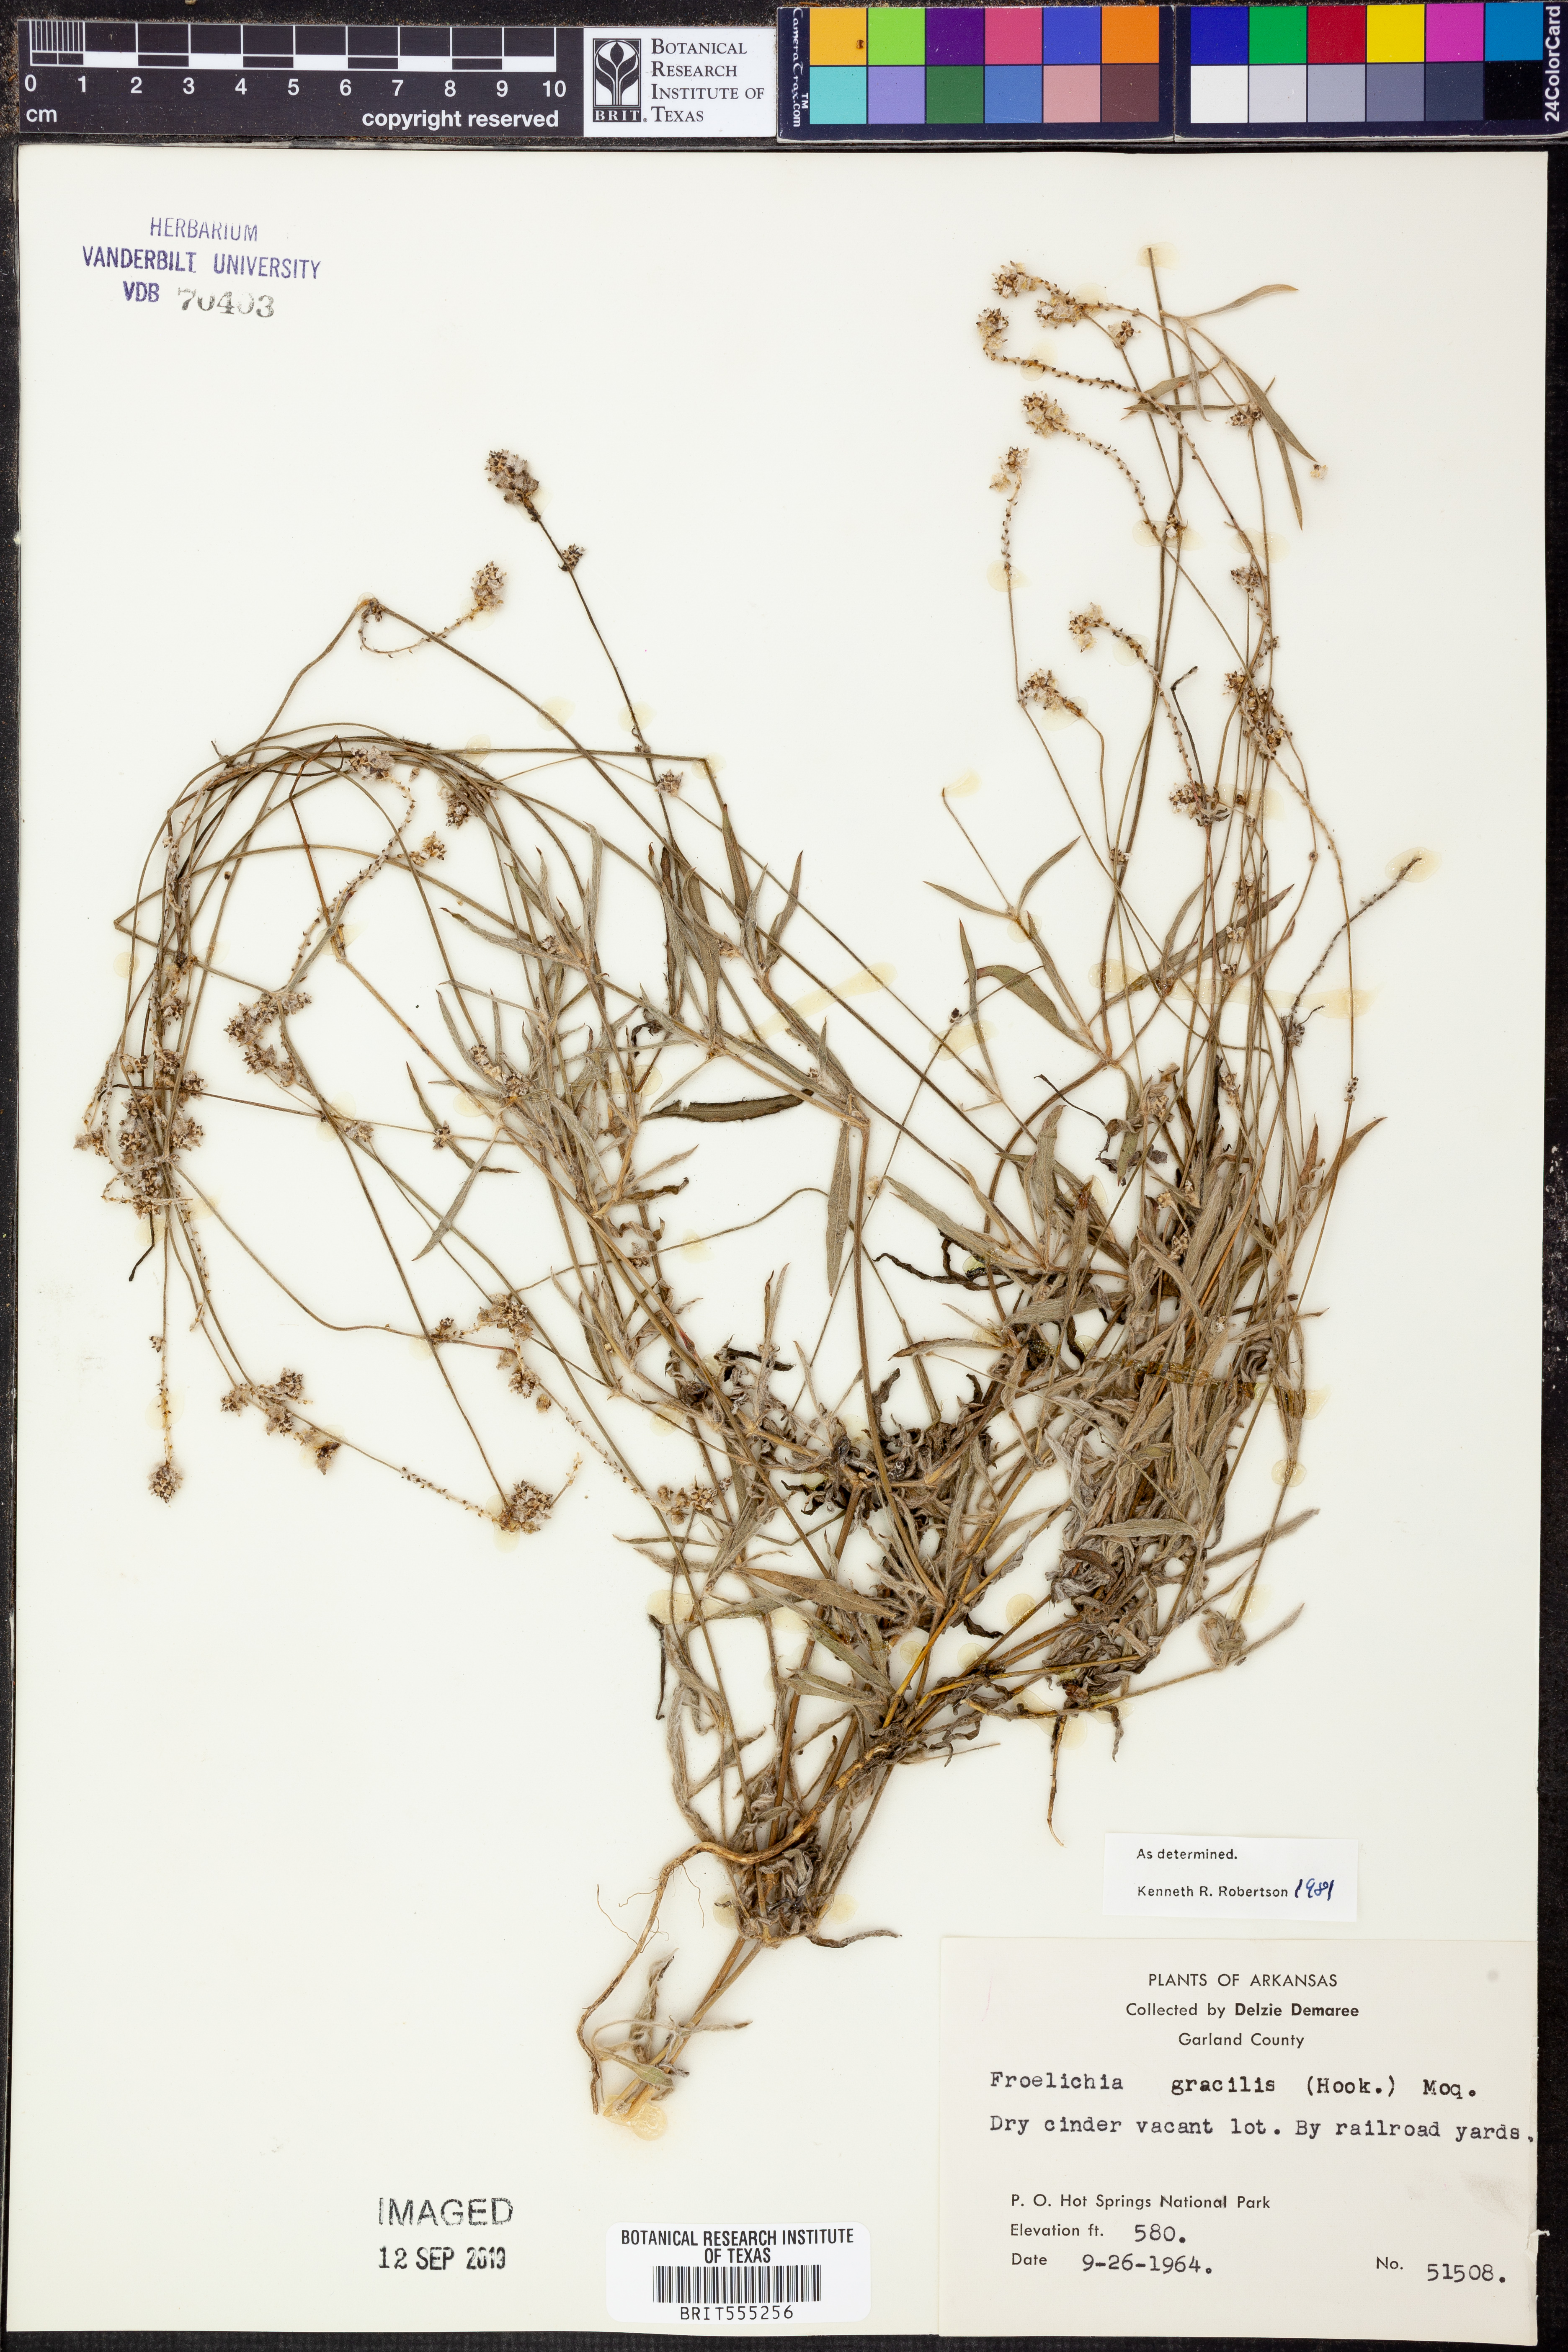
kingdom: Plantae
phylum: Tracheophyta
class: Magnoliopsida
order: Caryophyllales
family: Amaranthaceae
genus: Froelichia
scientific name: Froelichia gracilis
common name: Slender cottonweed
